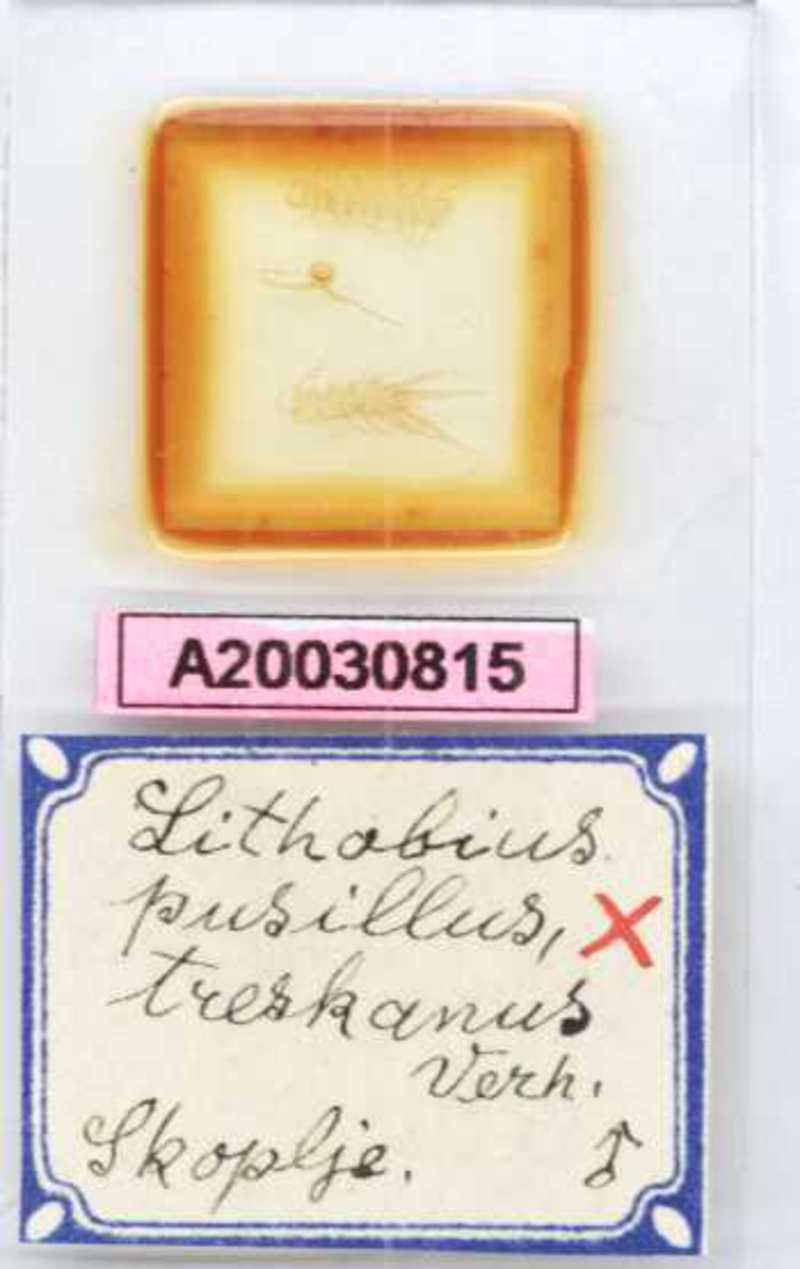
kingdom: Animalia
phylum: Arthropoda
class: Chilopoda
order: Lithobiomorpha
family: Lithobiidae
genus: Lithobius
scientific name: Lithobius
